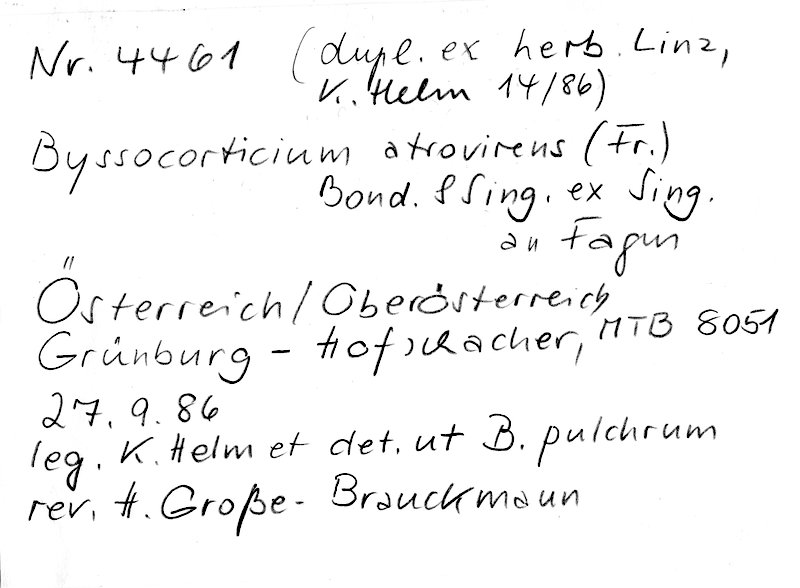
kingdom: Plantae
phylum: Tracheophyta
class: Magnoliopsida
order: Fagales
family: Fagaceae
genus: Fagus
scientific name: Fagus sylvatica
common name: Beech
